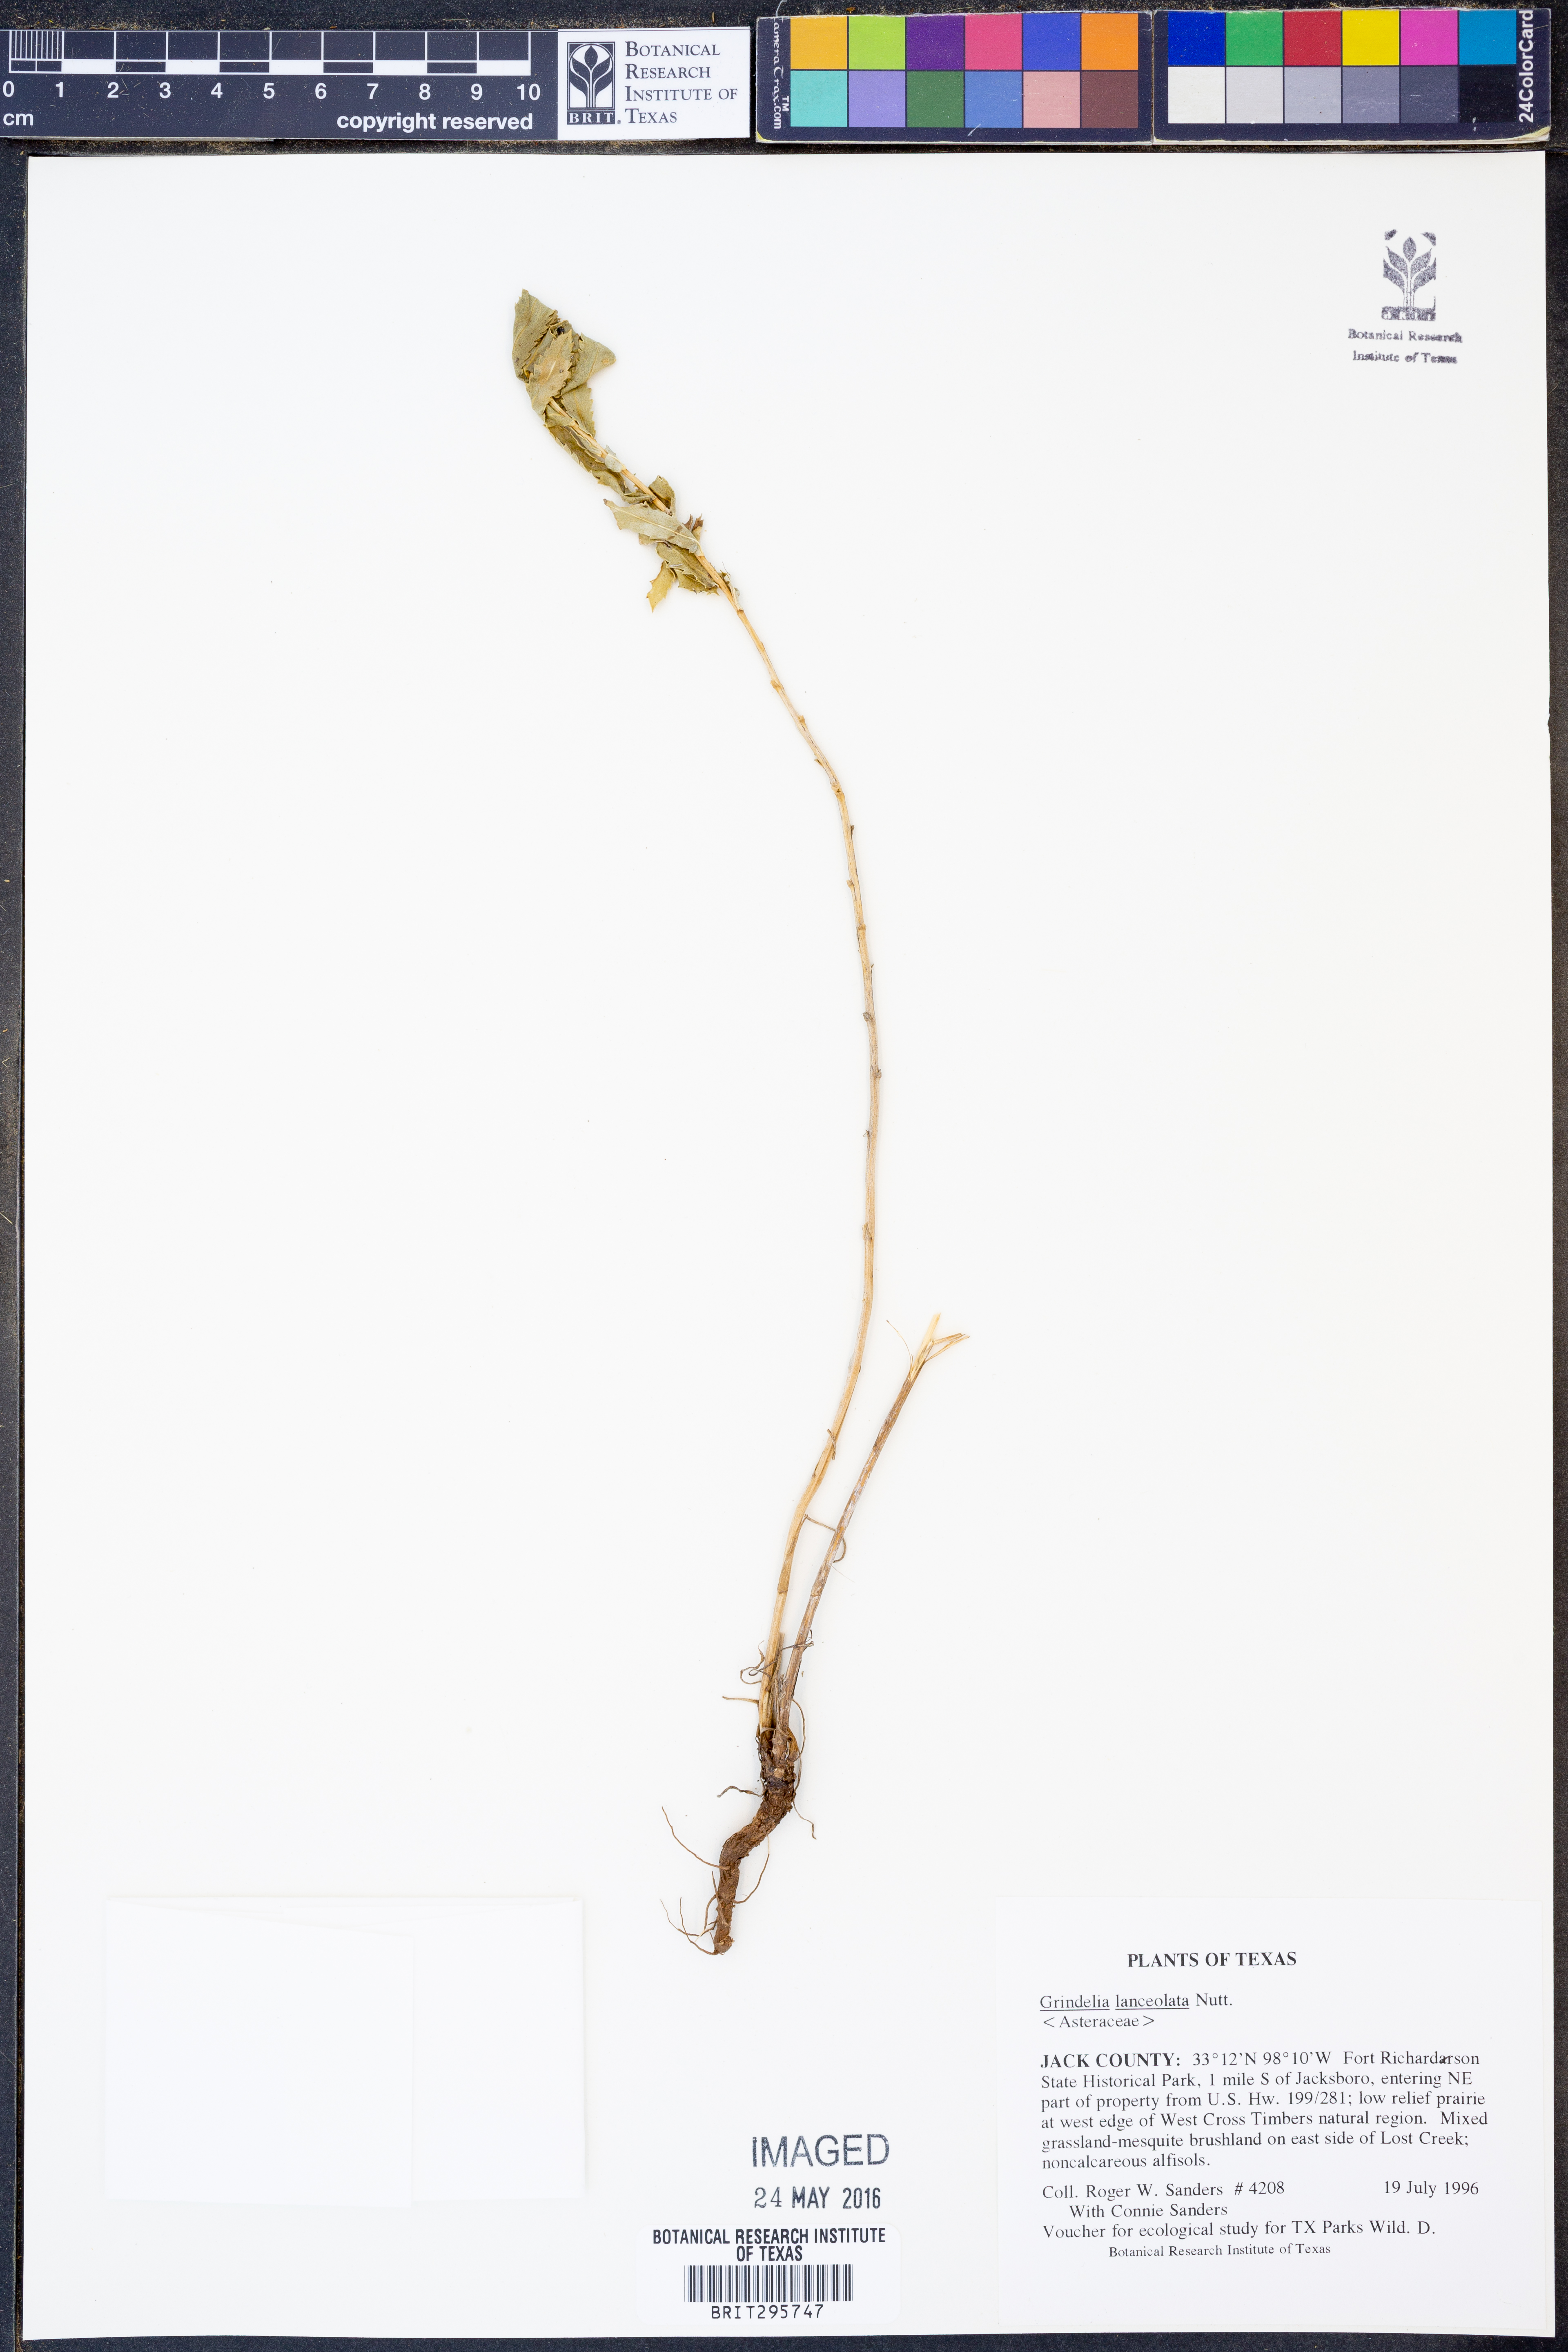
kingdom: Plantae
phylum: Tracheophyta
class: Magnoliopsida
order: Asterales
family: Asteraceae
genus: Grindelia
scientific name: Grindelia lanceolata
